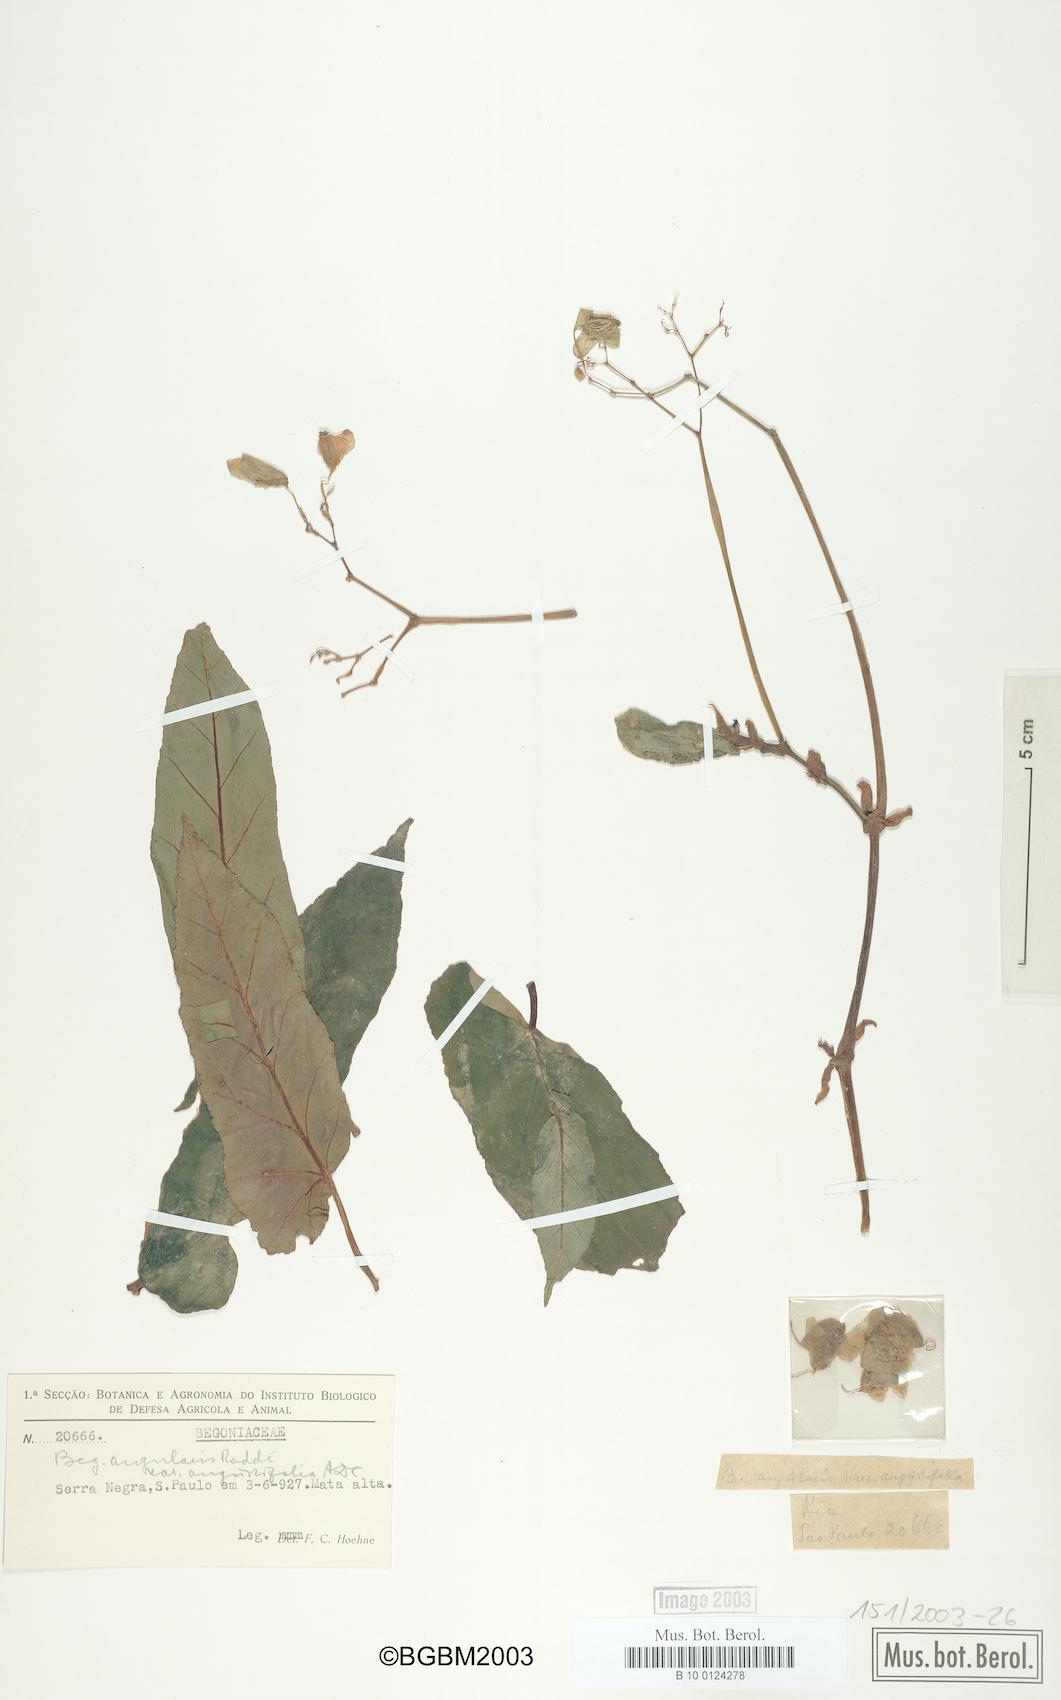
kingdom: Plantae
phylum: Tracheophyta
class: Magnoliopsida
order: Cucurbitales
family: Begoniaceae
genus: Begonia
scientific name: Begonia angularis
